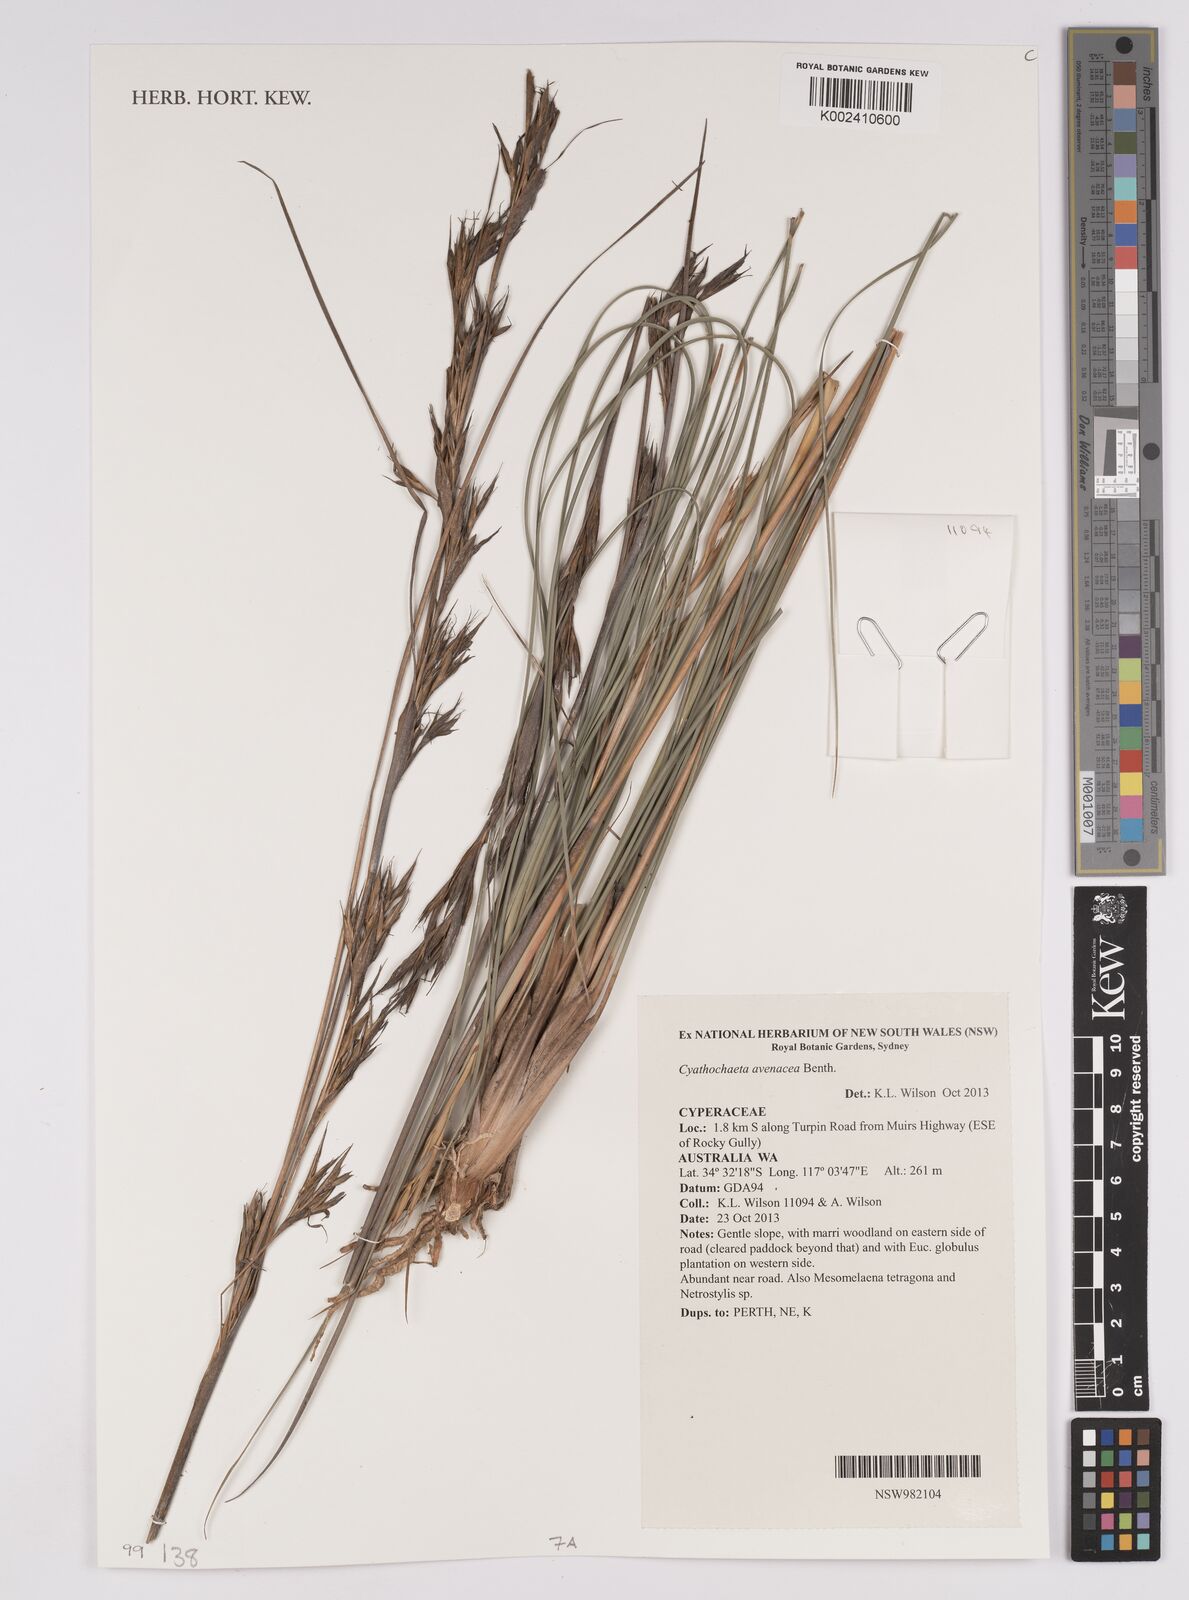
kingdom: Plantae
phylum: Tracheophyta
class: Liliopsida
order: Poales
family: Cyperaceae
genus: Cyathochaeta
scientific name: Cyathochaeta avenacea
